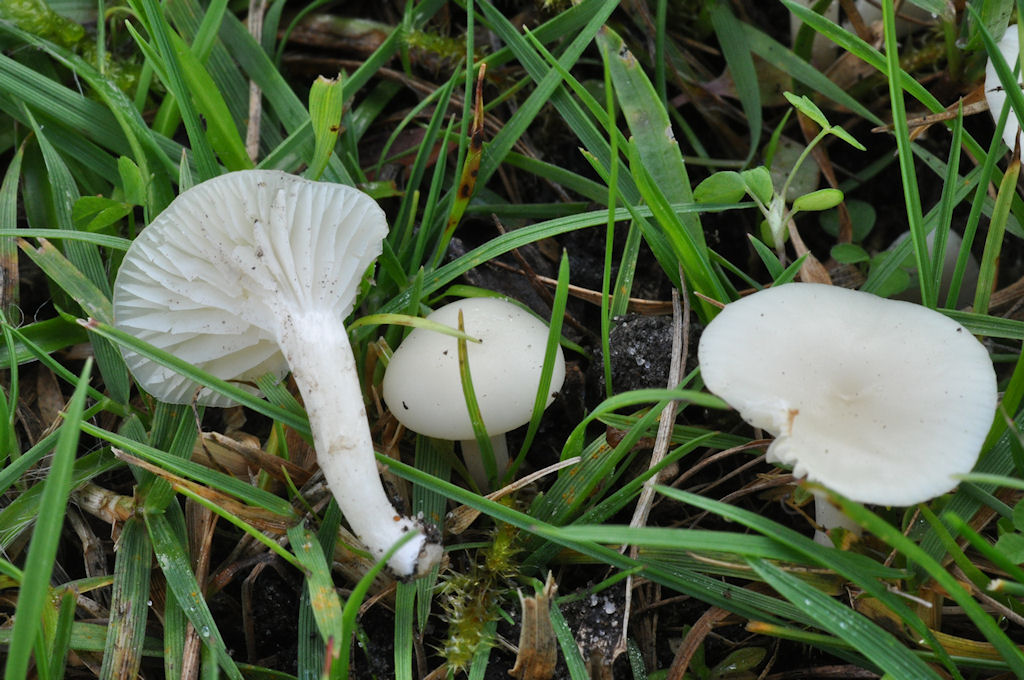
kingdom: Fungi
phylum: Basidiomycota
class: Agaricomycetes
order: Agaricales
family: Hygrophoraceae
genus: Cuphophyllus
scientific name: Cuphophyllus virgineus
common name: snehvid vokshat
